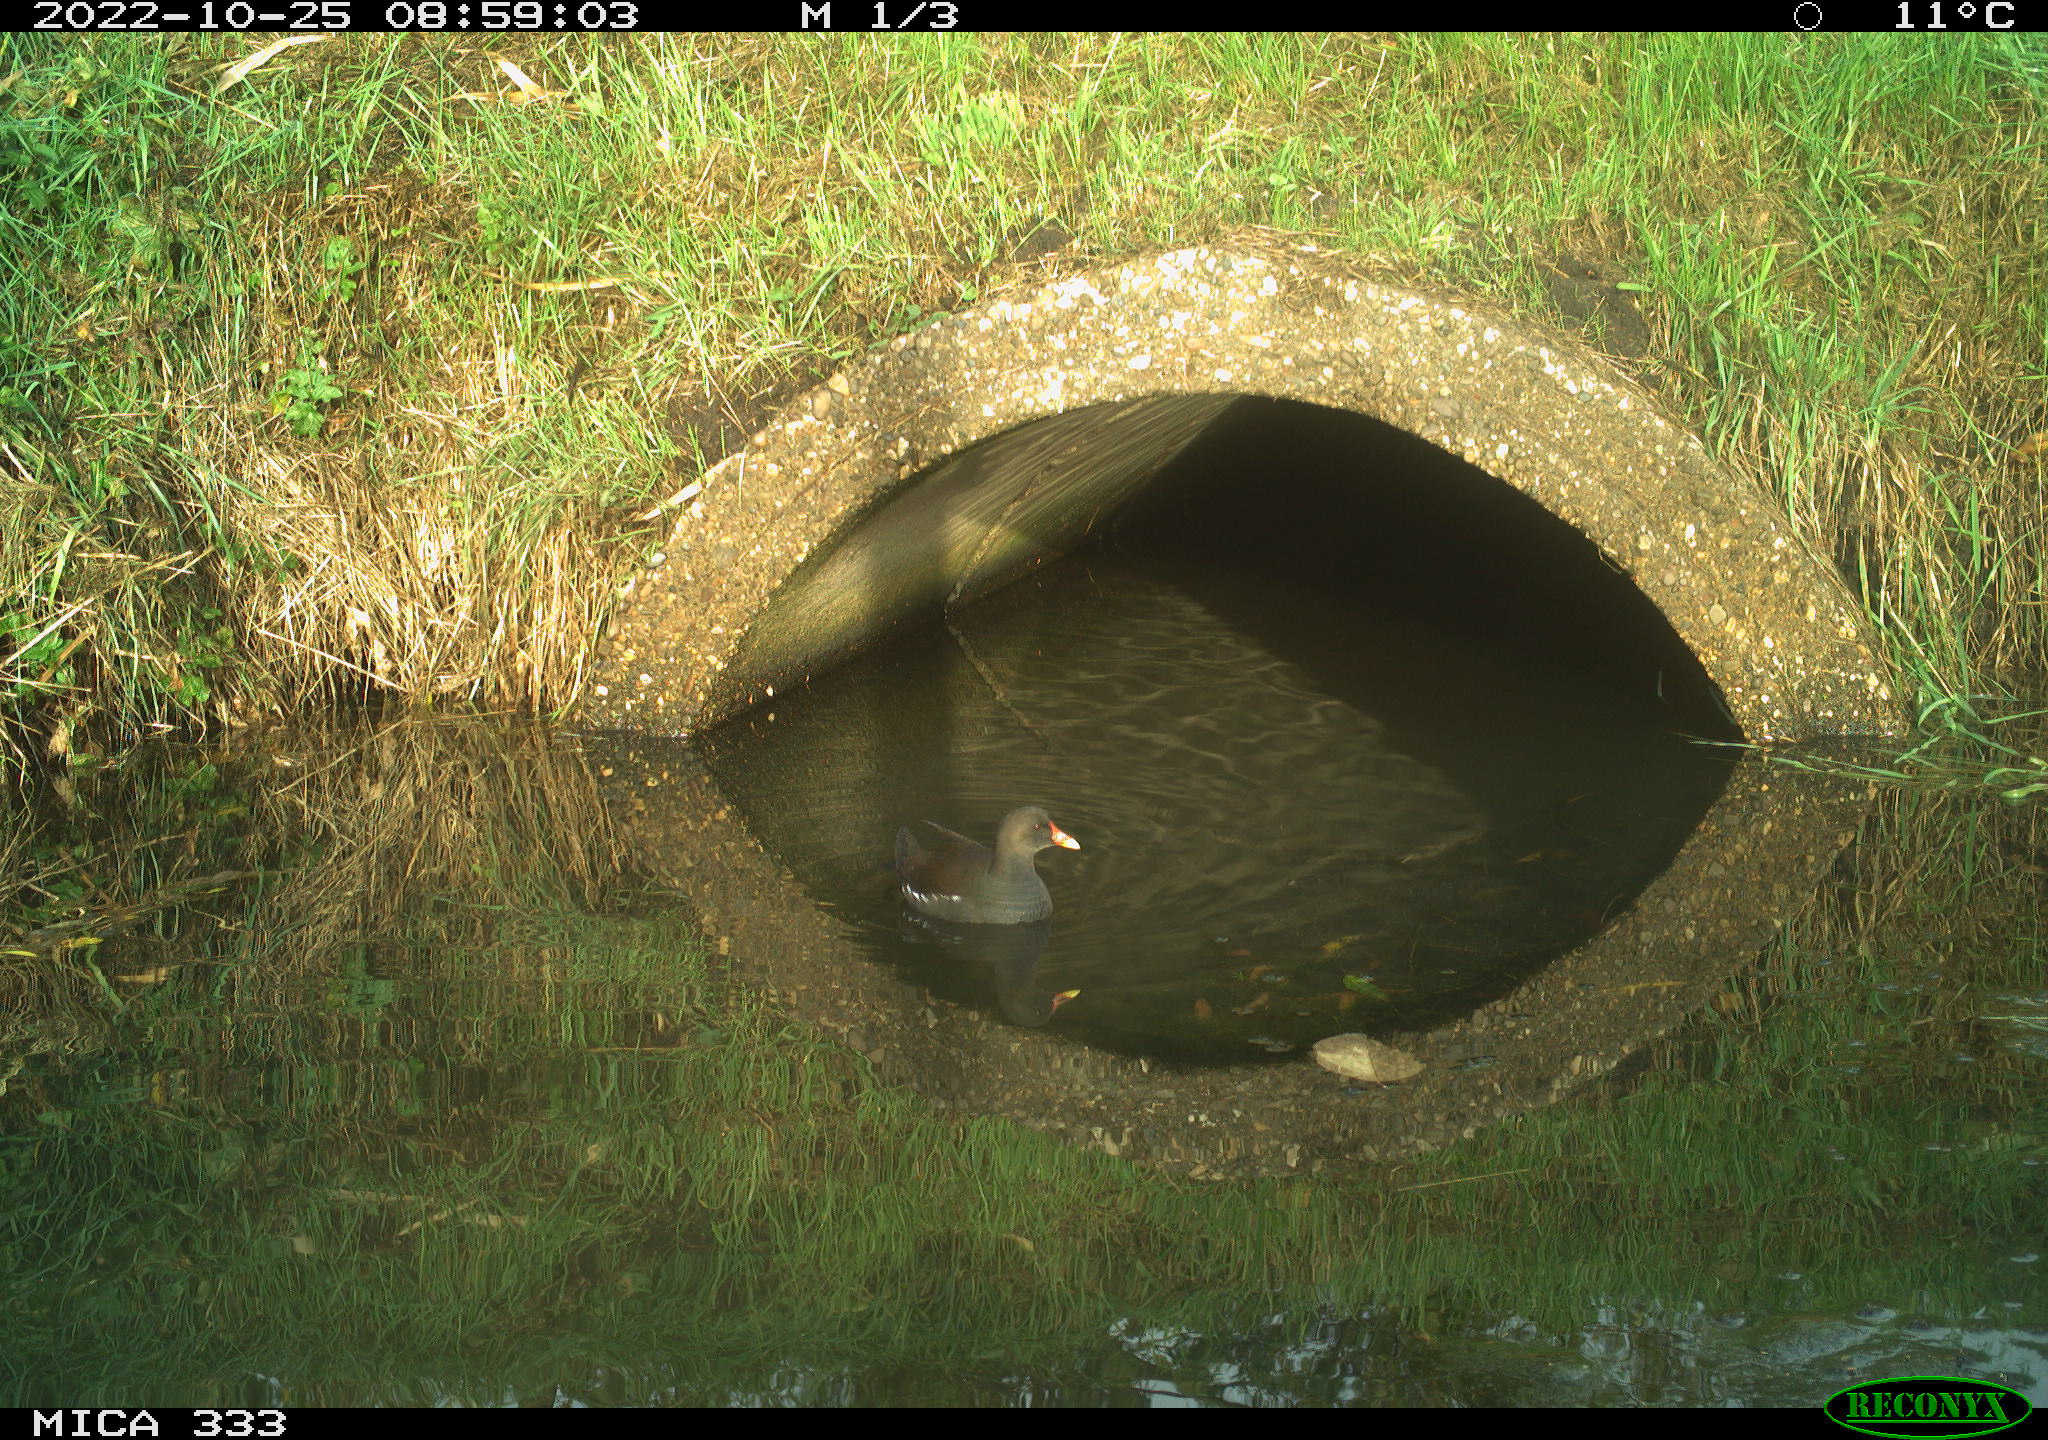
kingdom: Animalia
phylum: Chordata
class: Aves
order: Gruiformes
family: Rallidae
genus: Gallinula
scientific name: Gallinula chloropus
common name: Common moorhen
